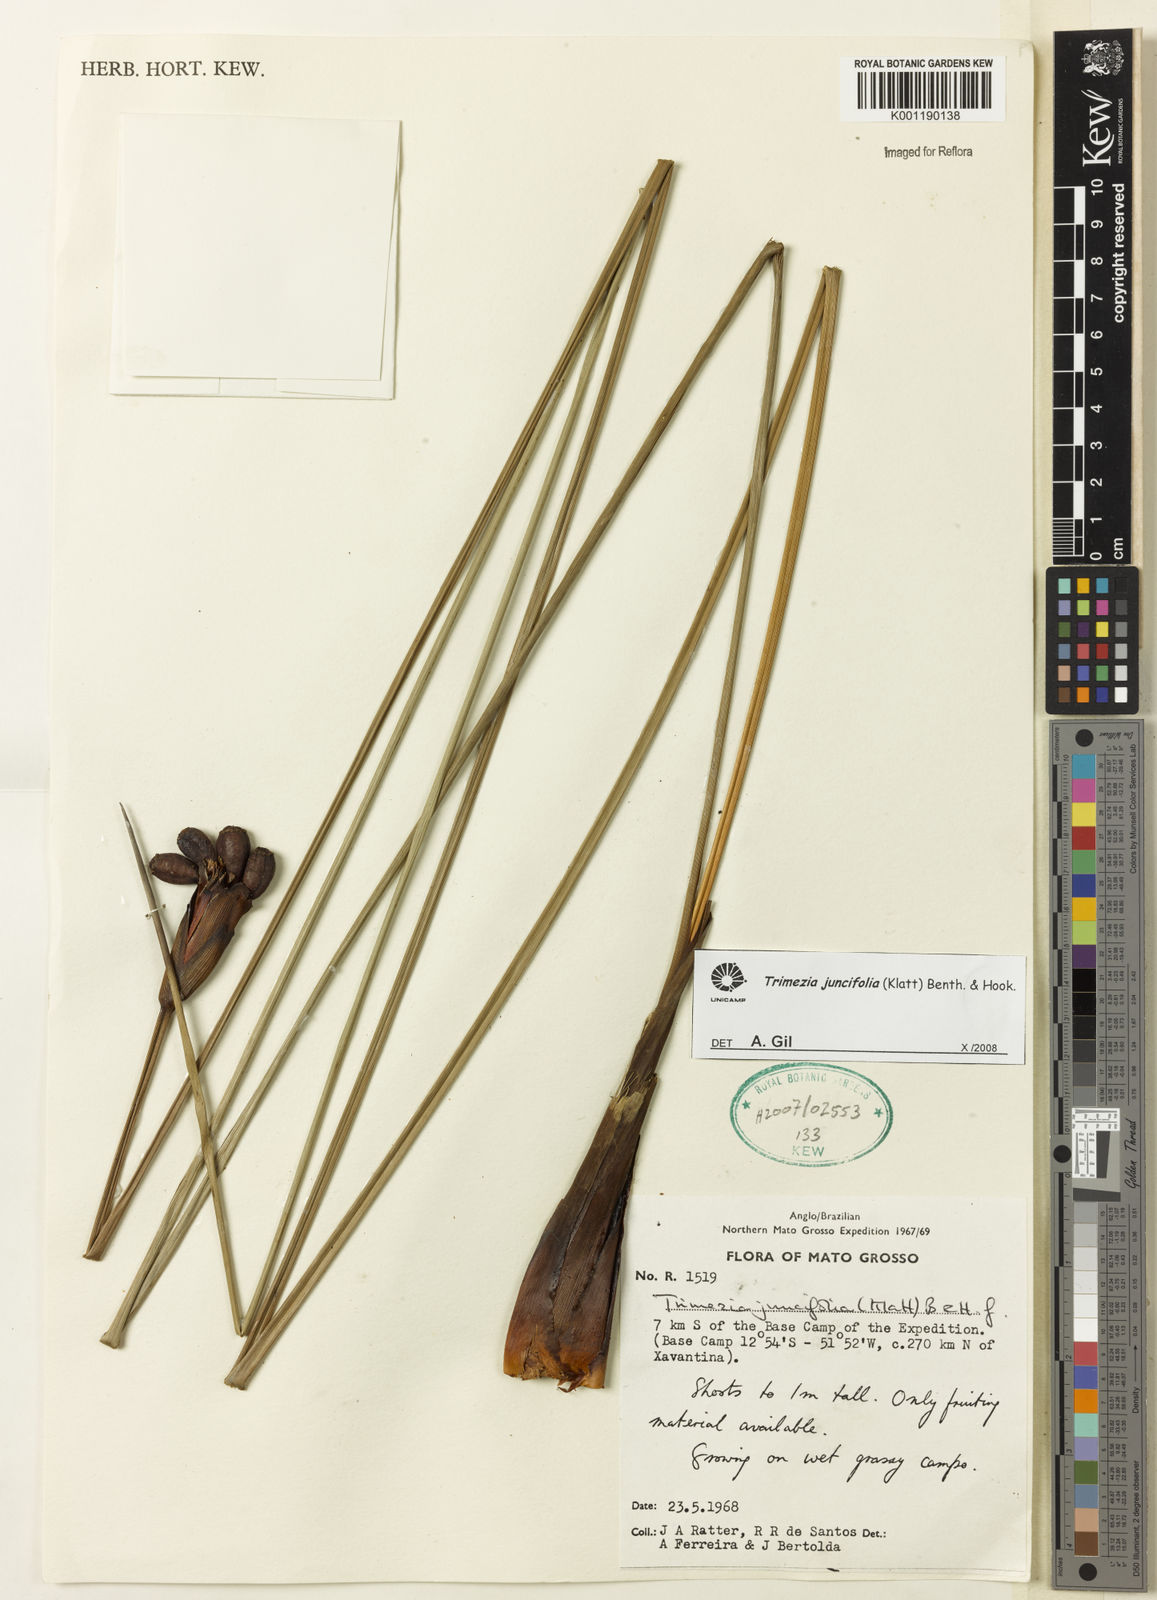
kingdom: Plantae
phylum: Tracheophyta
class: Liliopsida
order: Asparagales
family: Iridaceae
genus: Trimezia
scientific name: Trimezia juncifolia
